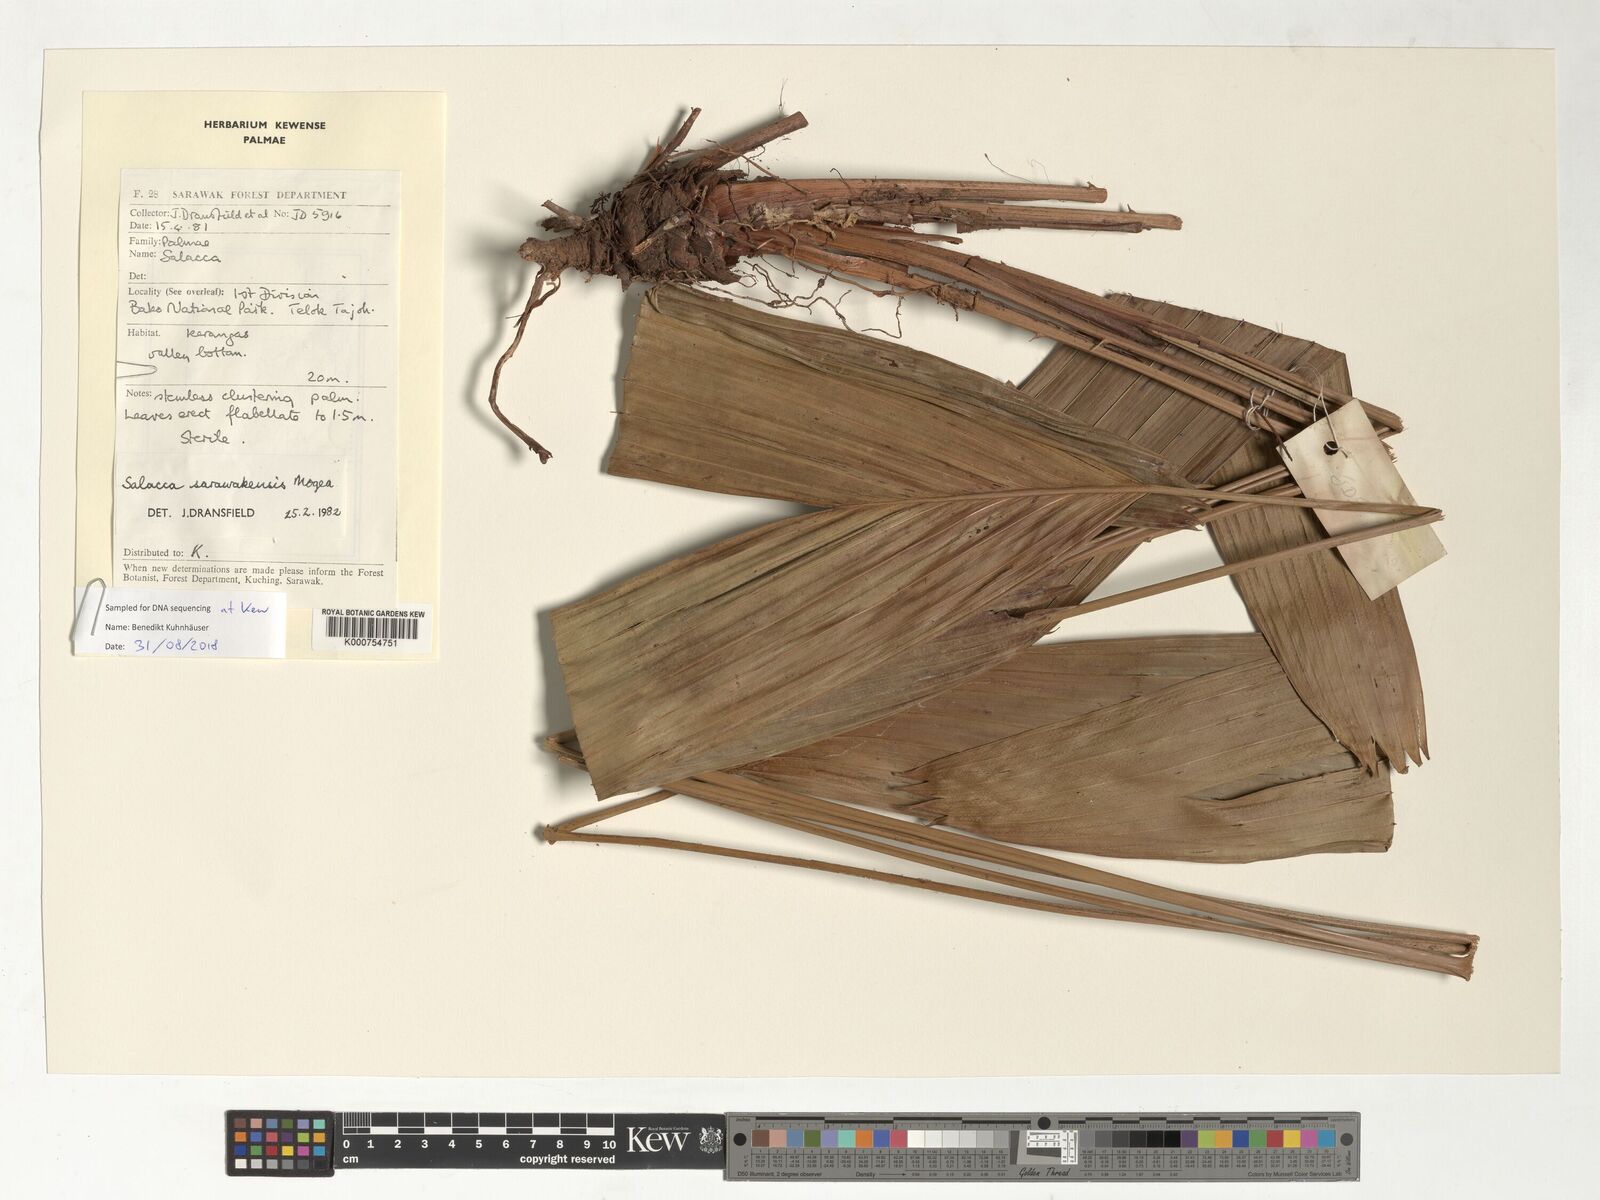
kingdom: Plantae
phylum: Tracheophyta
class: Liliopsida
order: Arecales
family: Arecaceae
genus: Salacca
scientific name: Salacca sarawakensis
